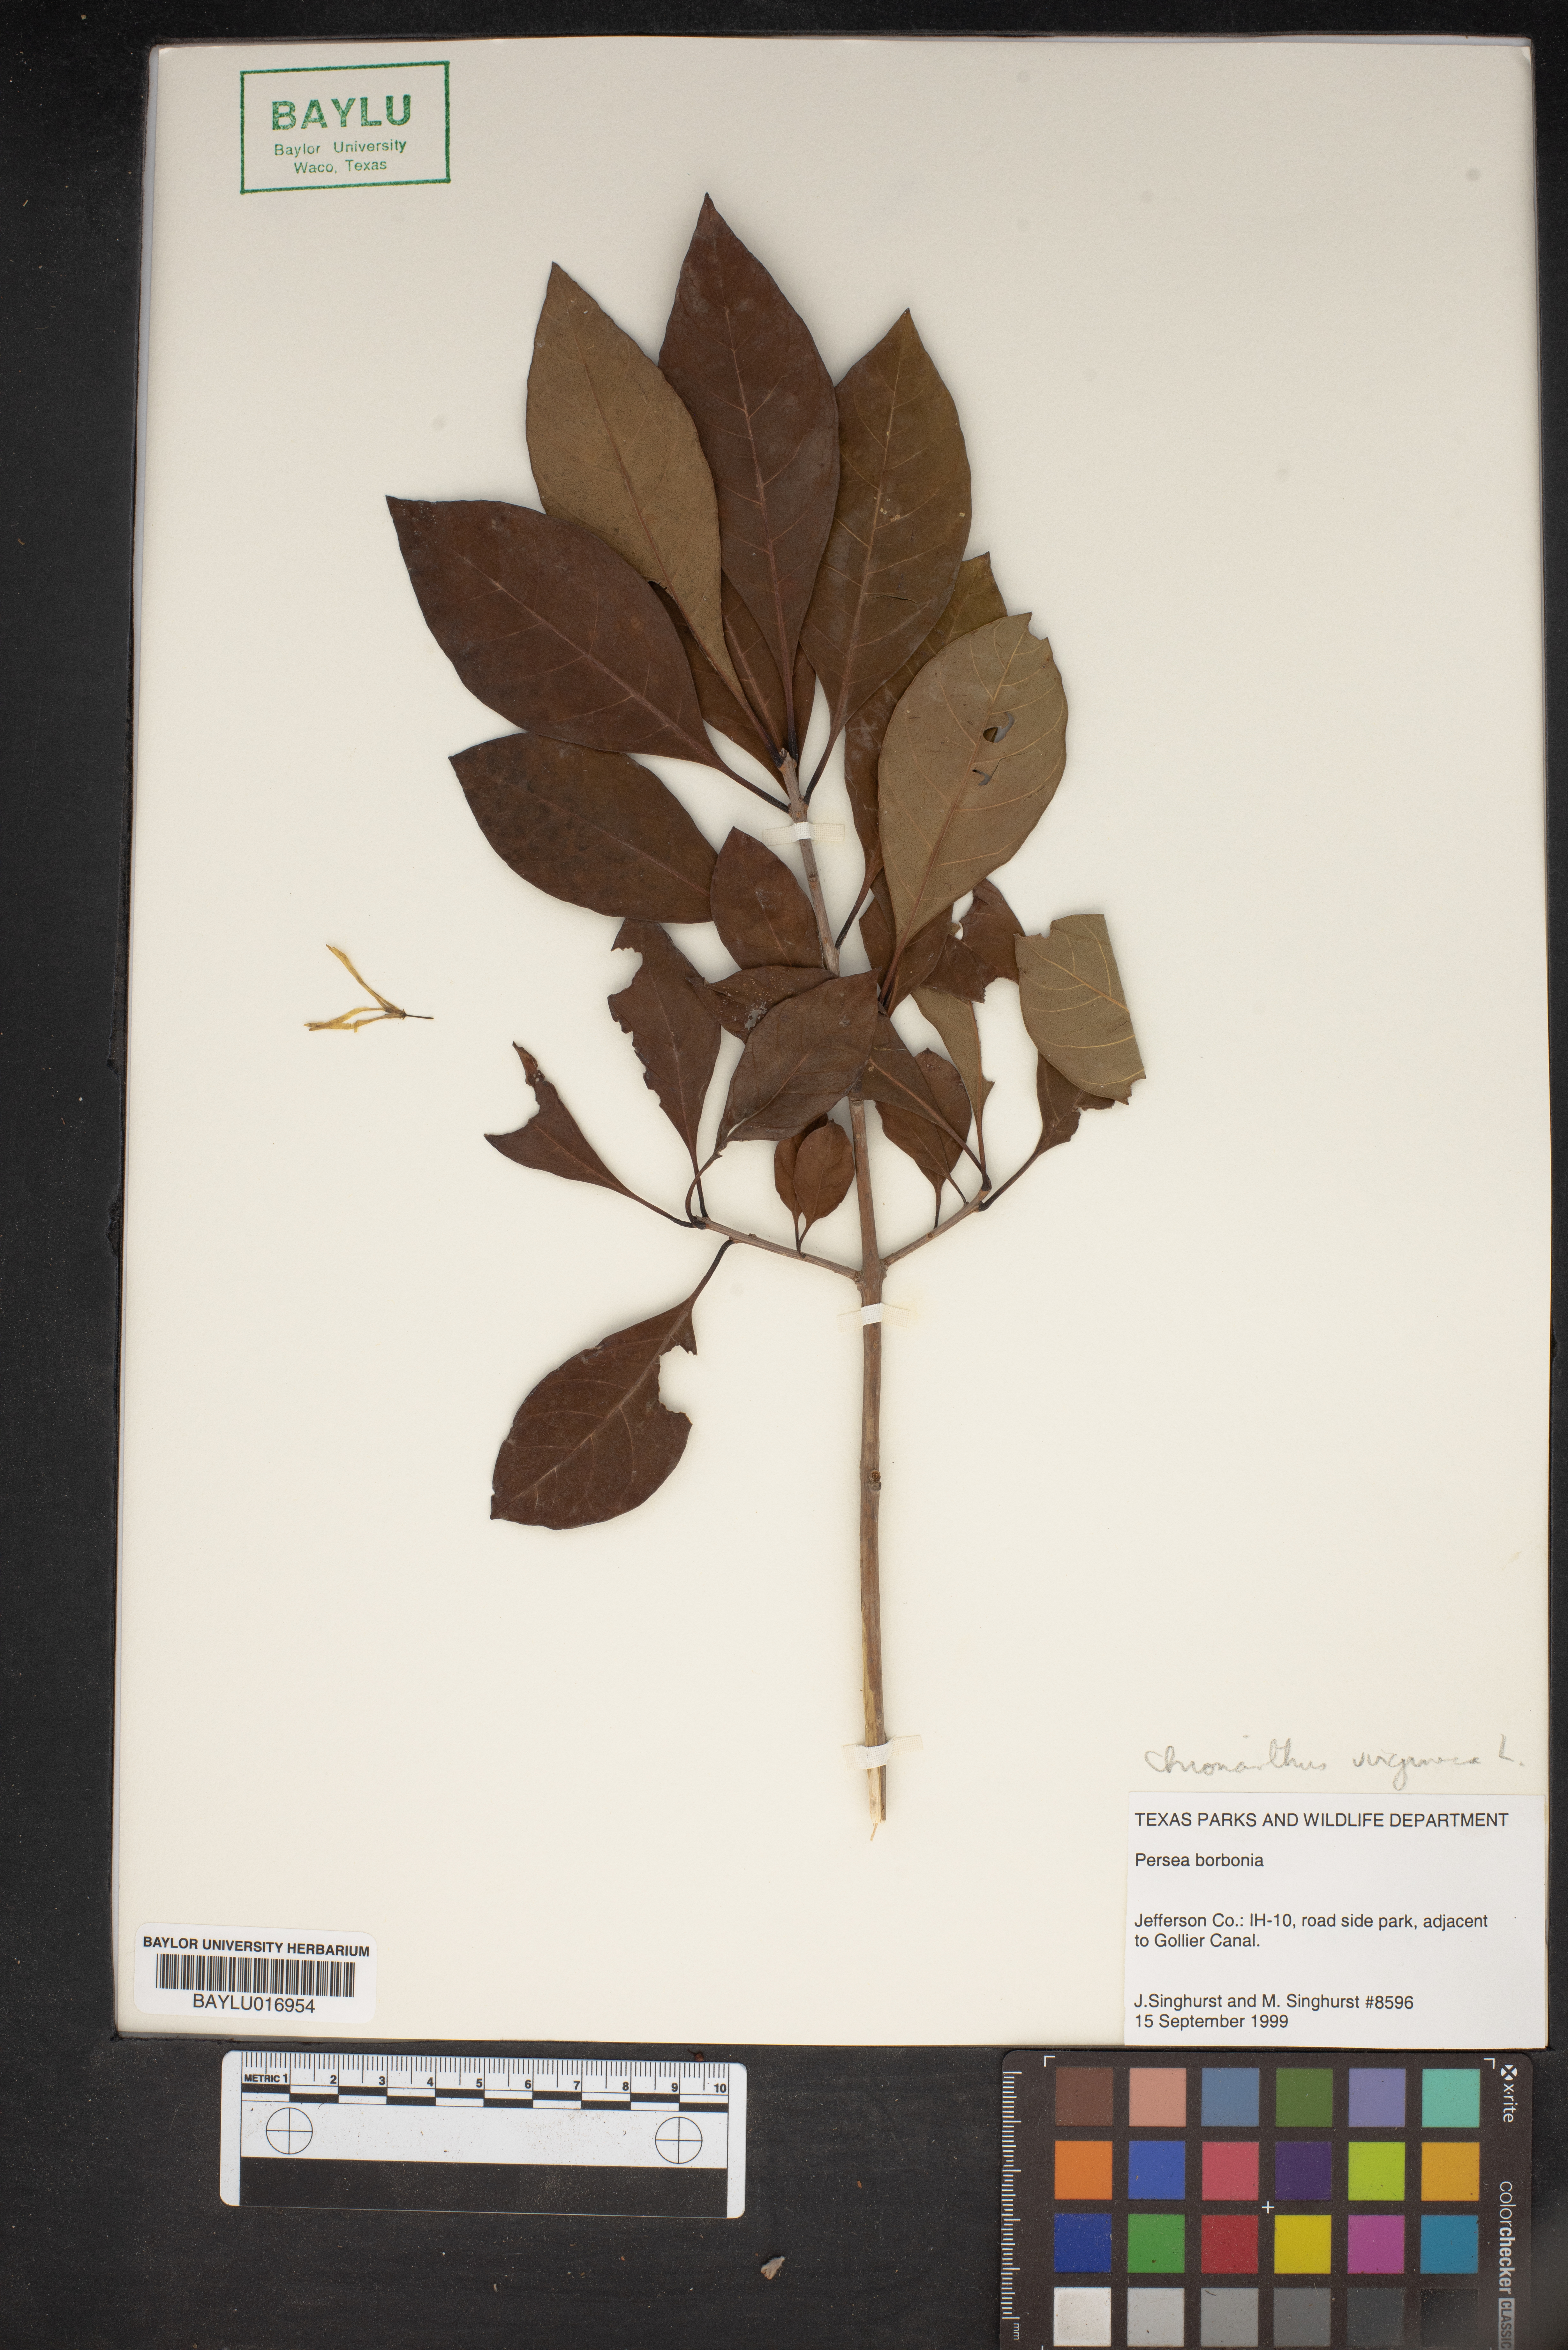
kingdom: Plantae
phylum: Tracheophyta
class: Magnoliopsida
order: Lamiales
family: Oleaceae
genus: Chionanthus
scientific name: Chionanthus virginicus
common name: American fringetree
